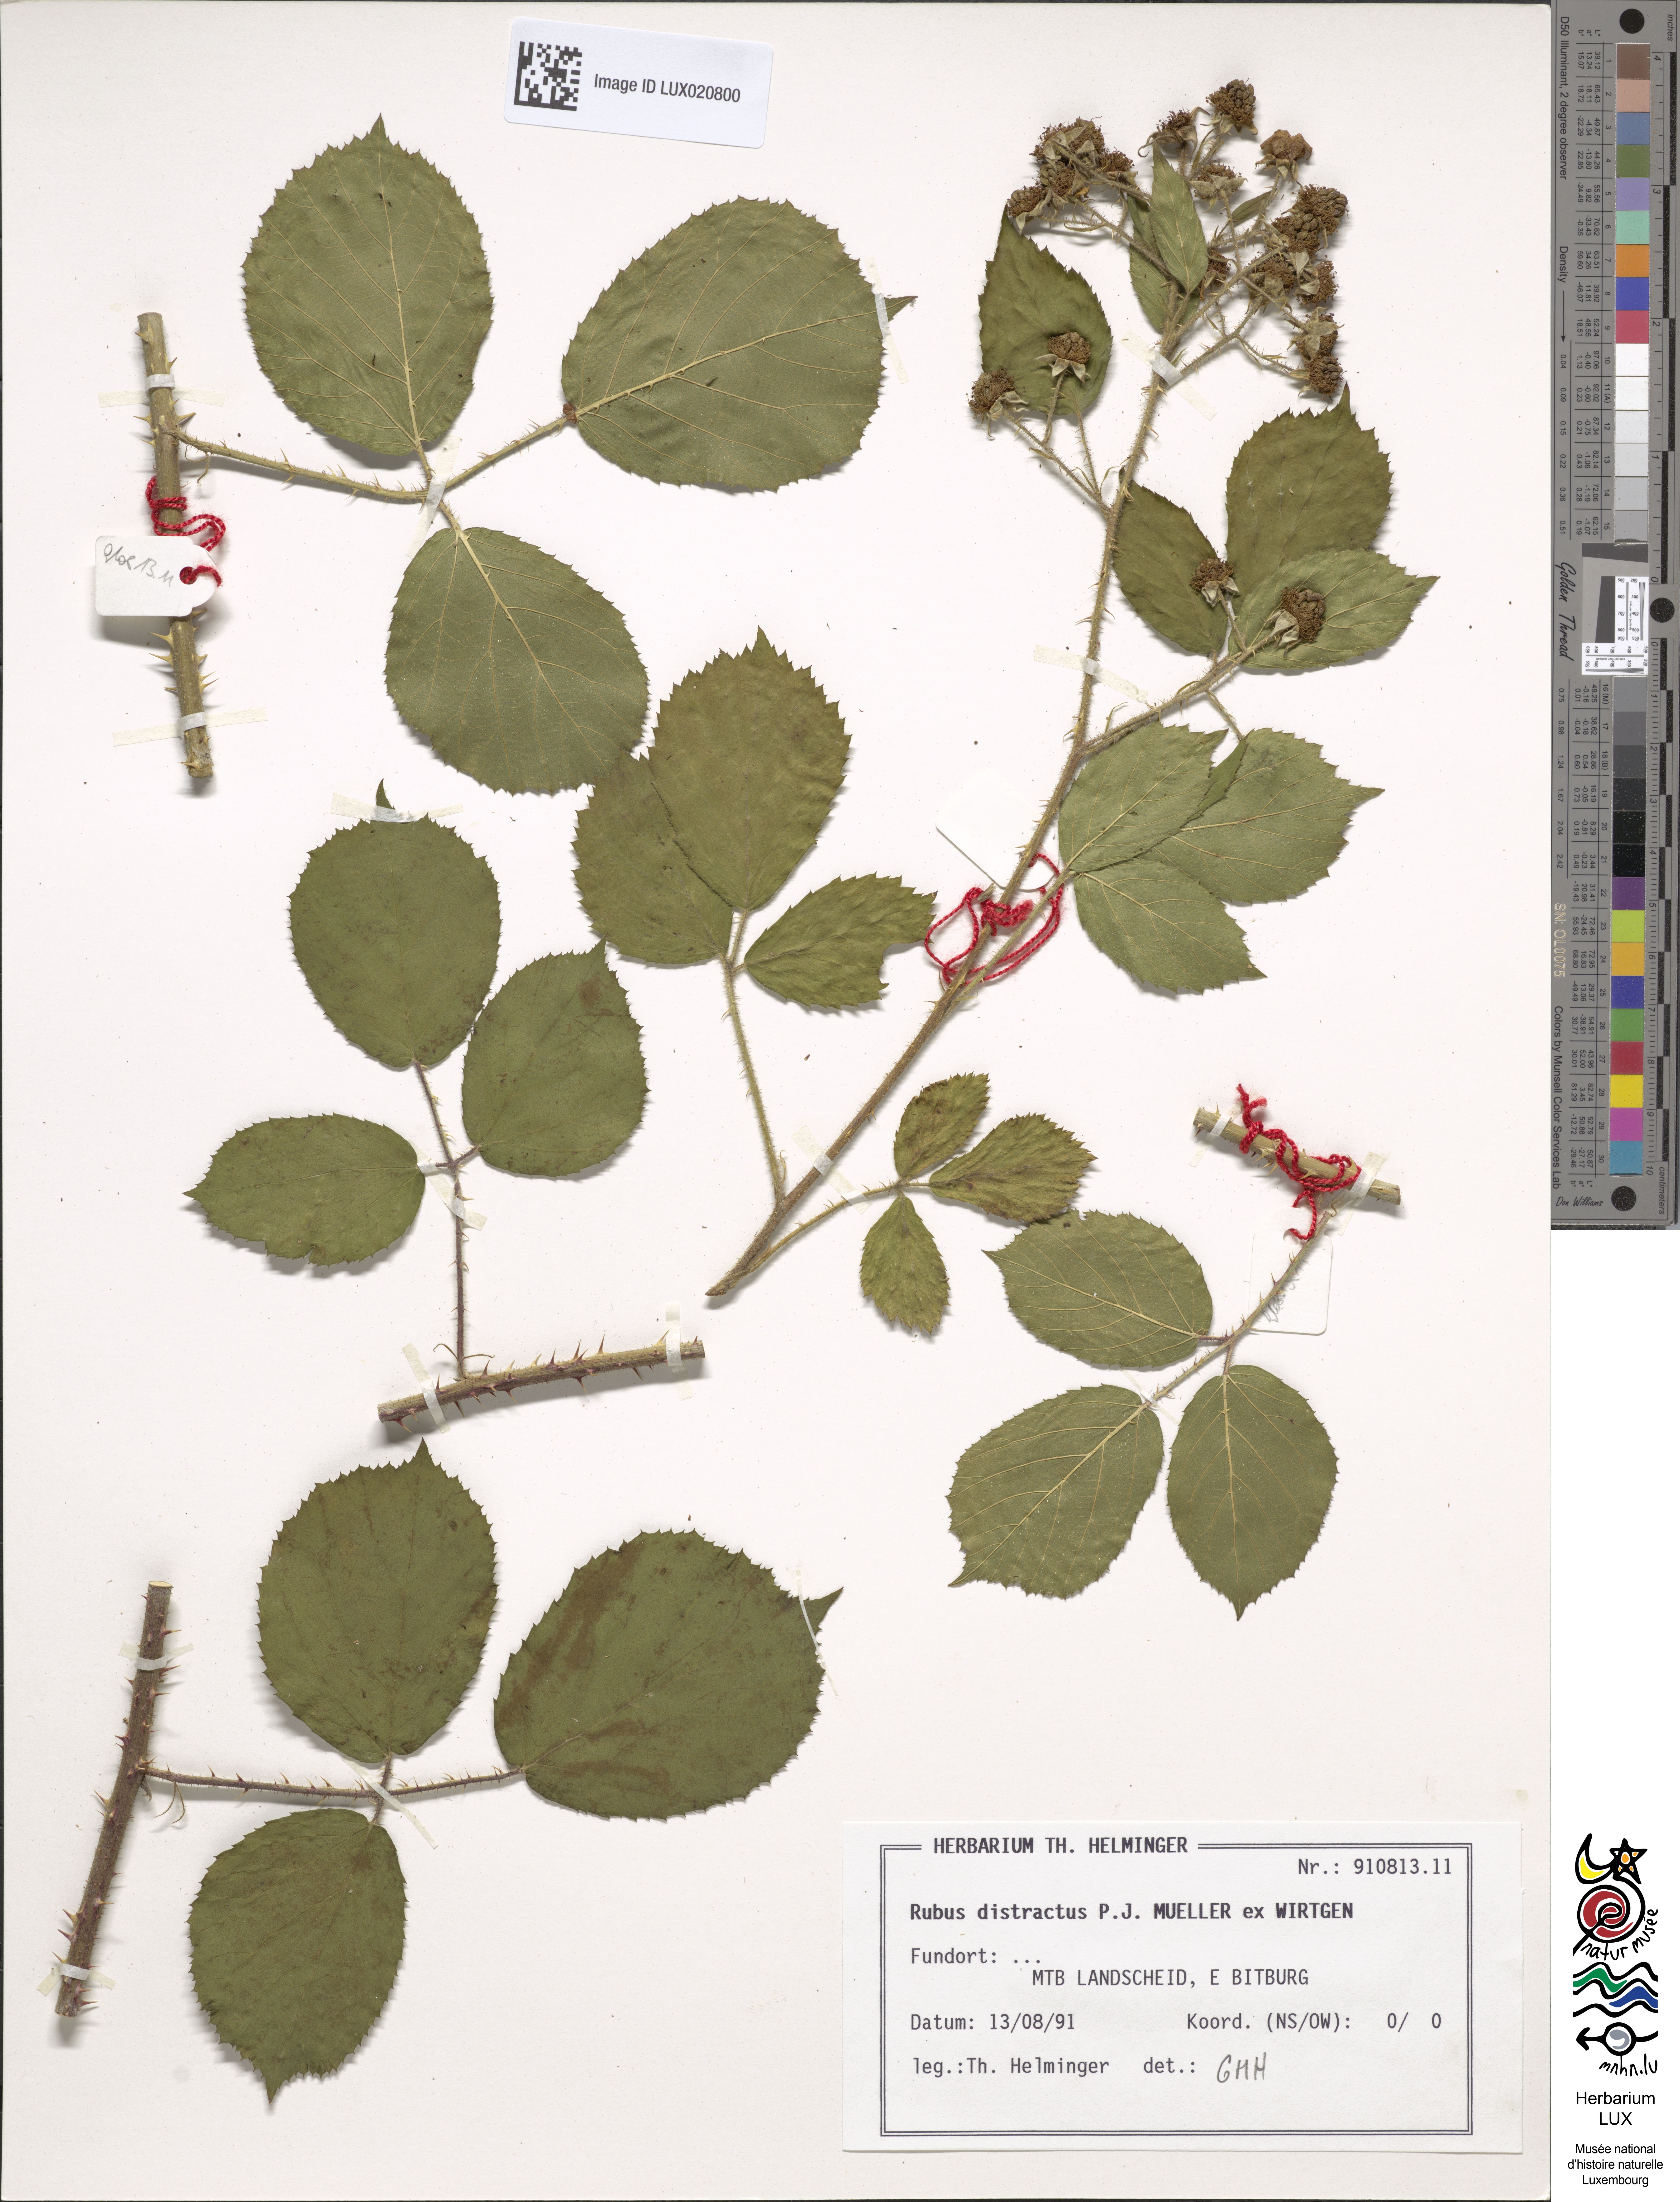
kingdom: Plantae
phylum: Tracheophyta
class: Magnoliopsida
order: Rosales
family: Rosaceae
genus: Rubus
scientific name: Rubus distractus
